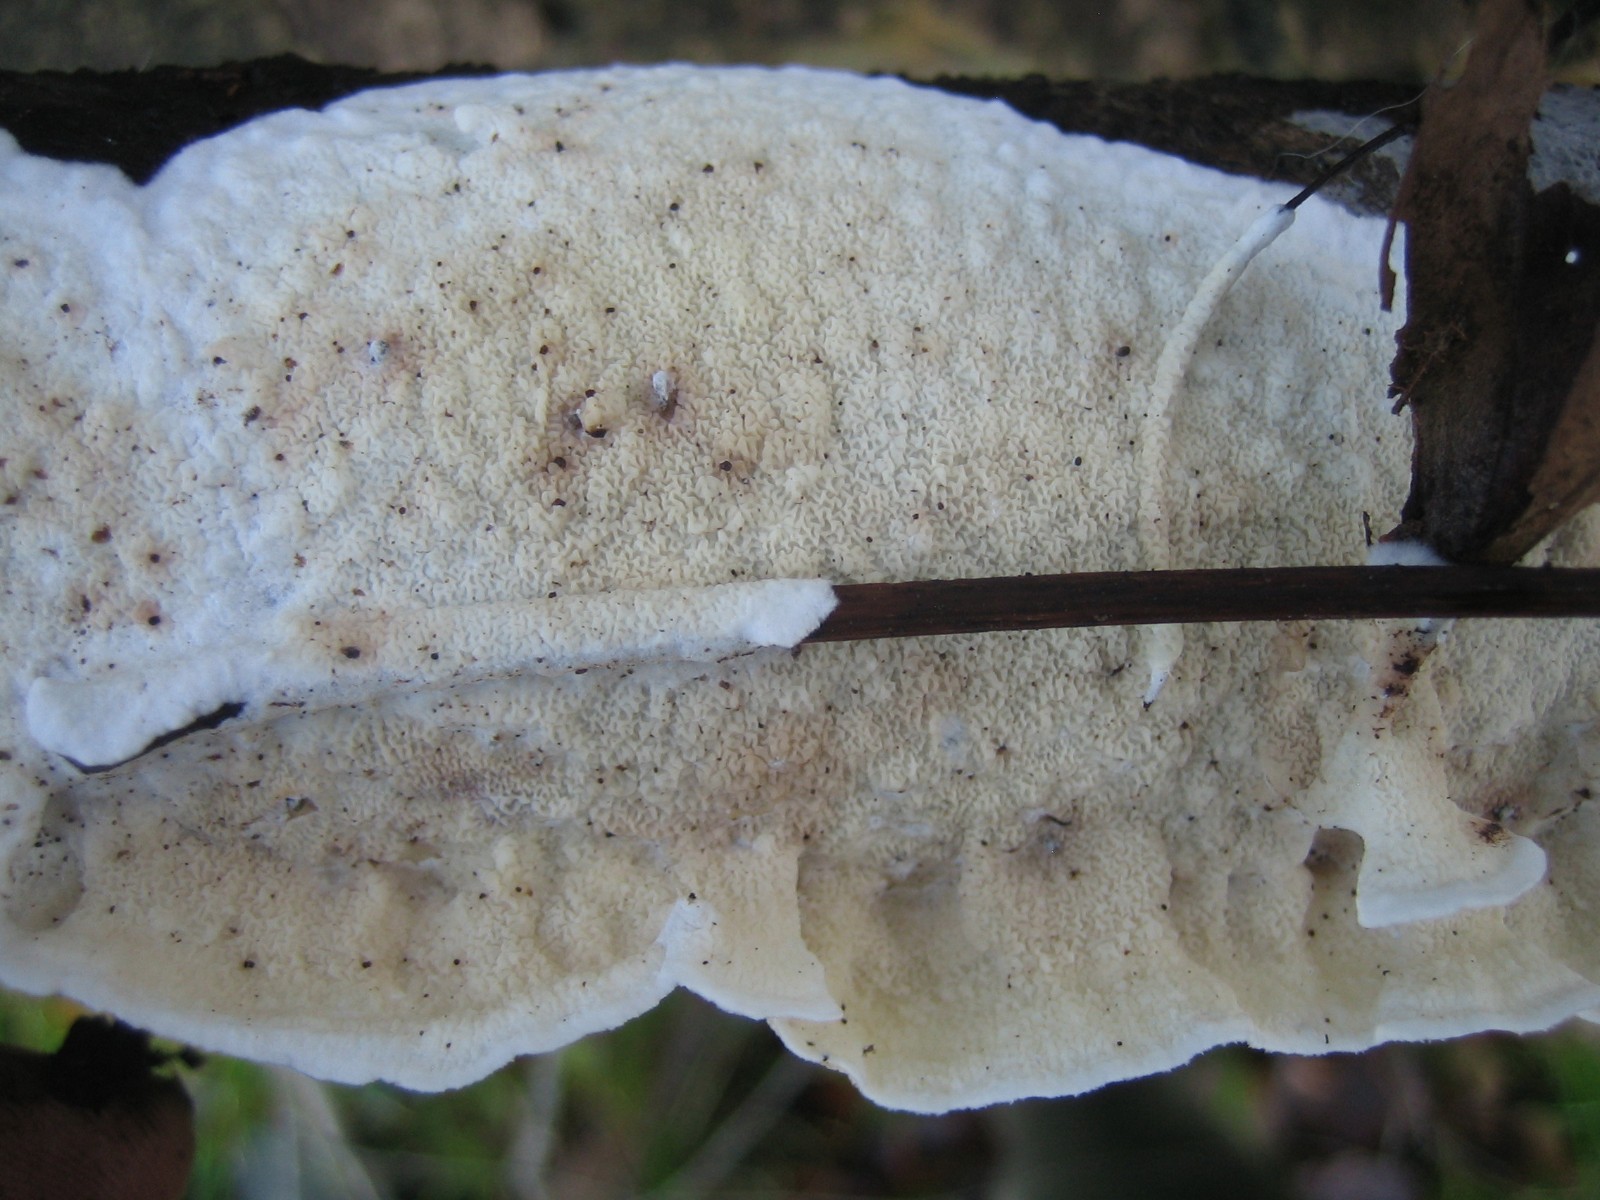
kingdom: Fungi
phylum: Basidiomycota
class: Agaricomycetes
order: Polyporales
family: Irpicaceae
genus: Byssomerulius
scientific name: Byssomerulius corium
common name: læder-åresvamp
